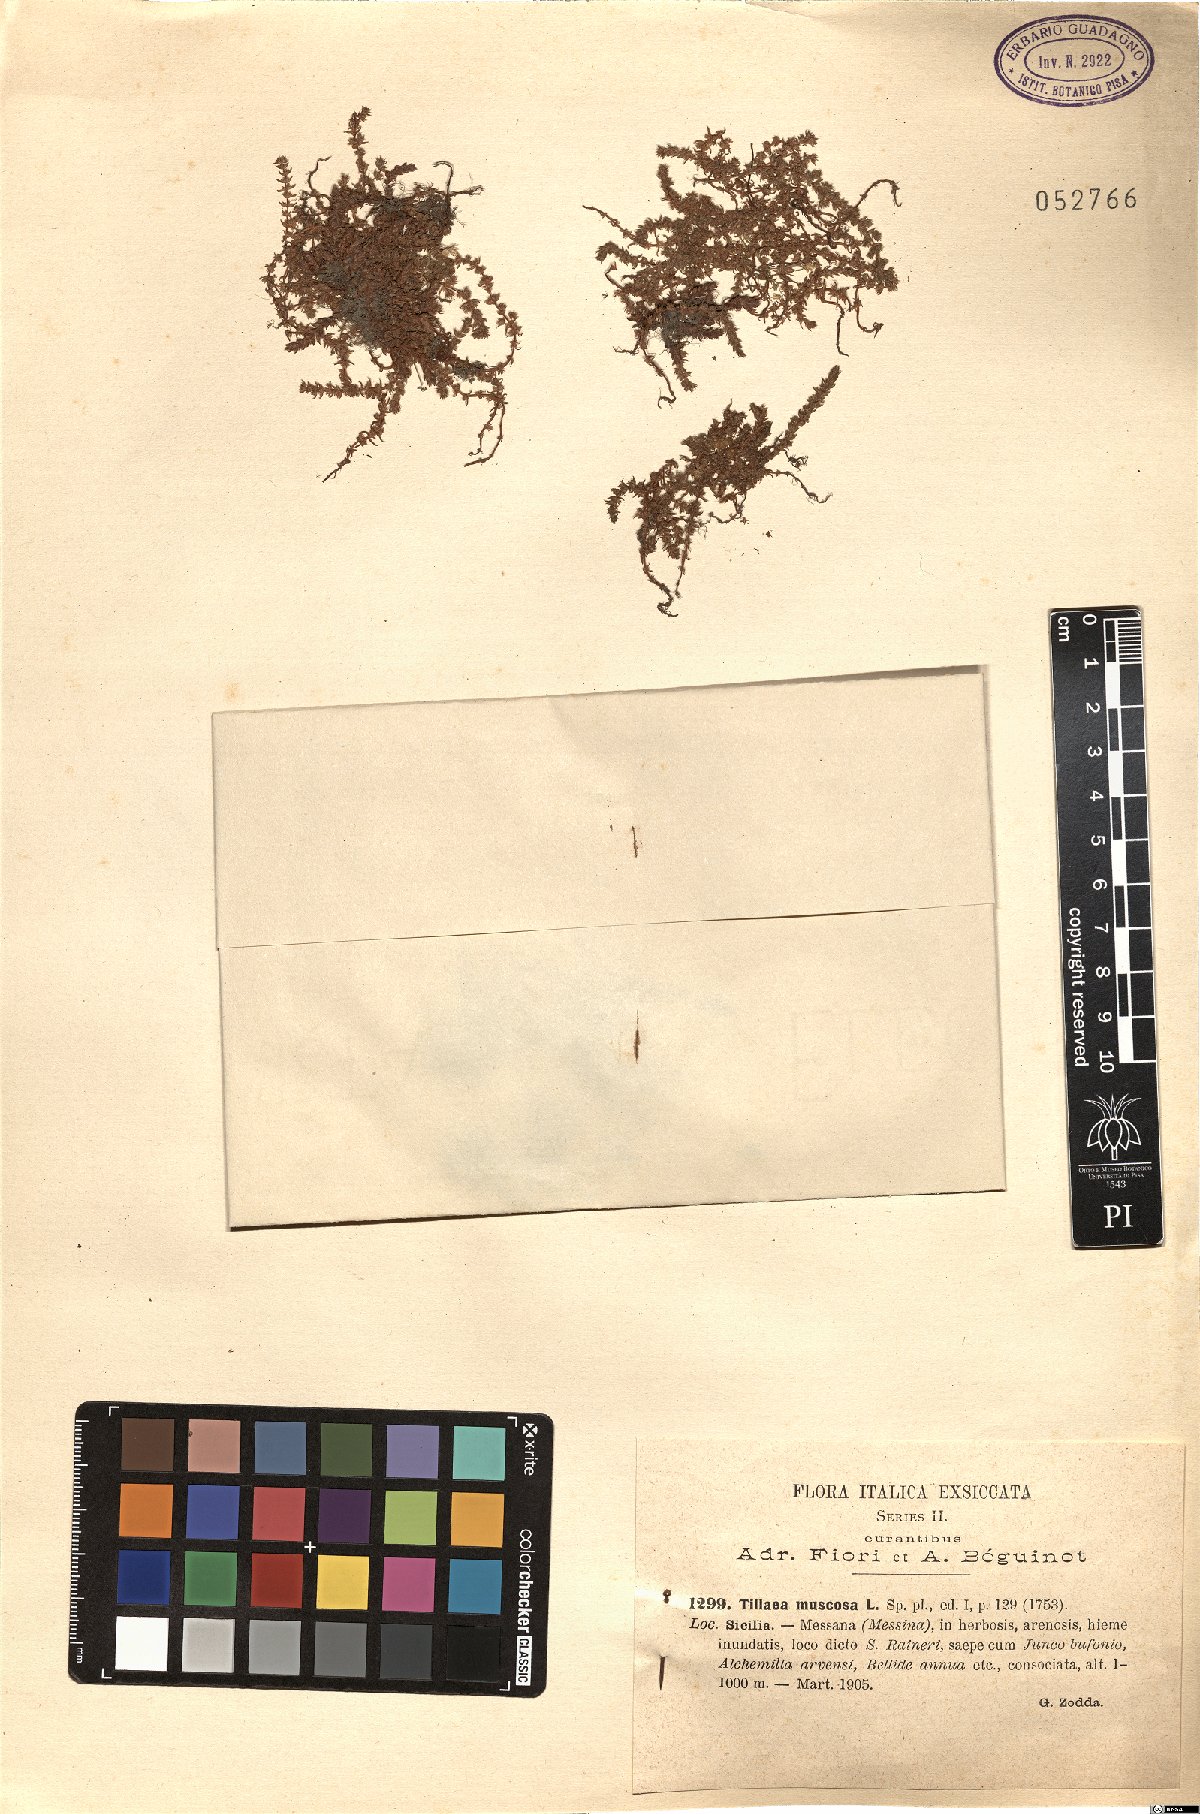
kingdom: Plantae
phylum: Tracheophyta
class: Magnoliopsida
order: Saxifragales
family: Crassulaceae
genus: Crassula
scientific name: Crassula tillaea
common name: Mossy stonecrop
